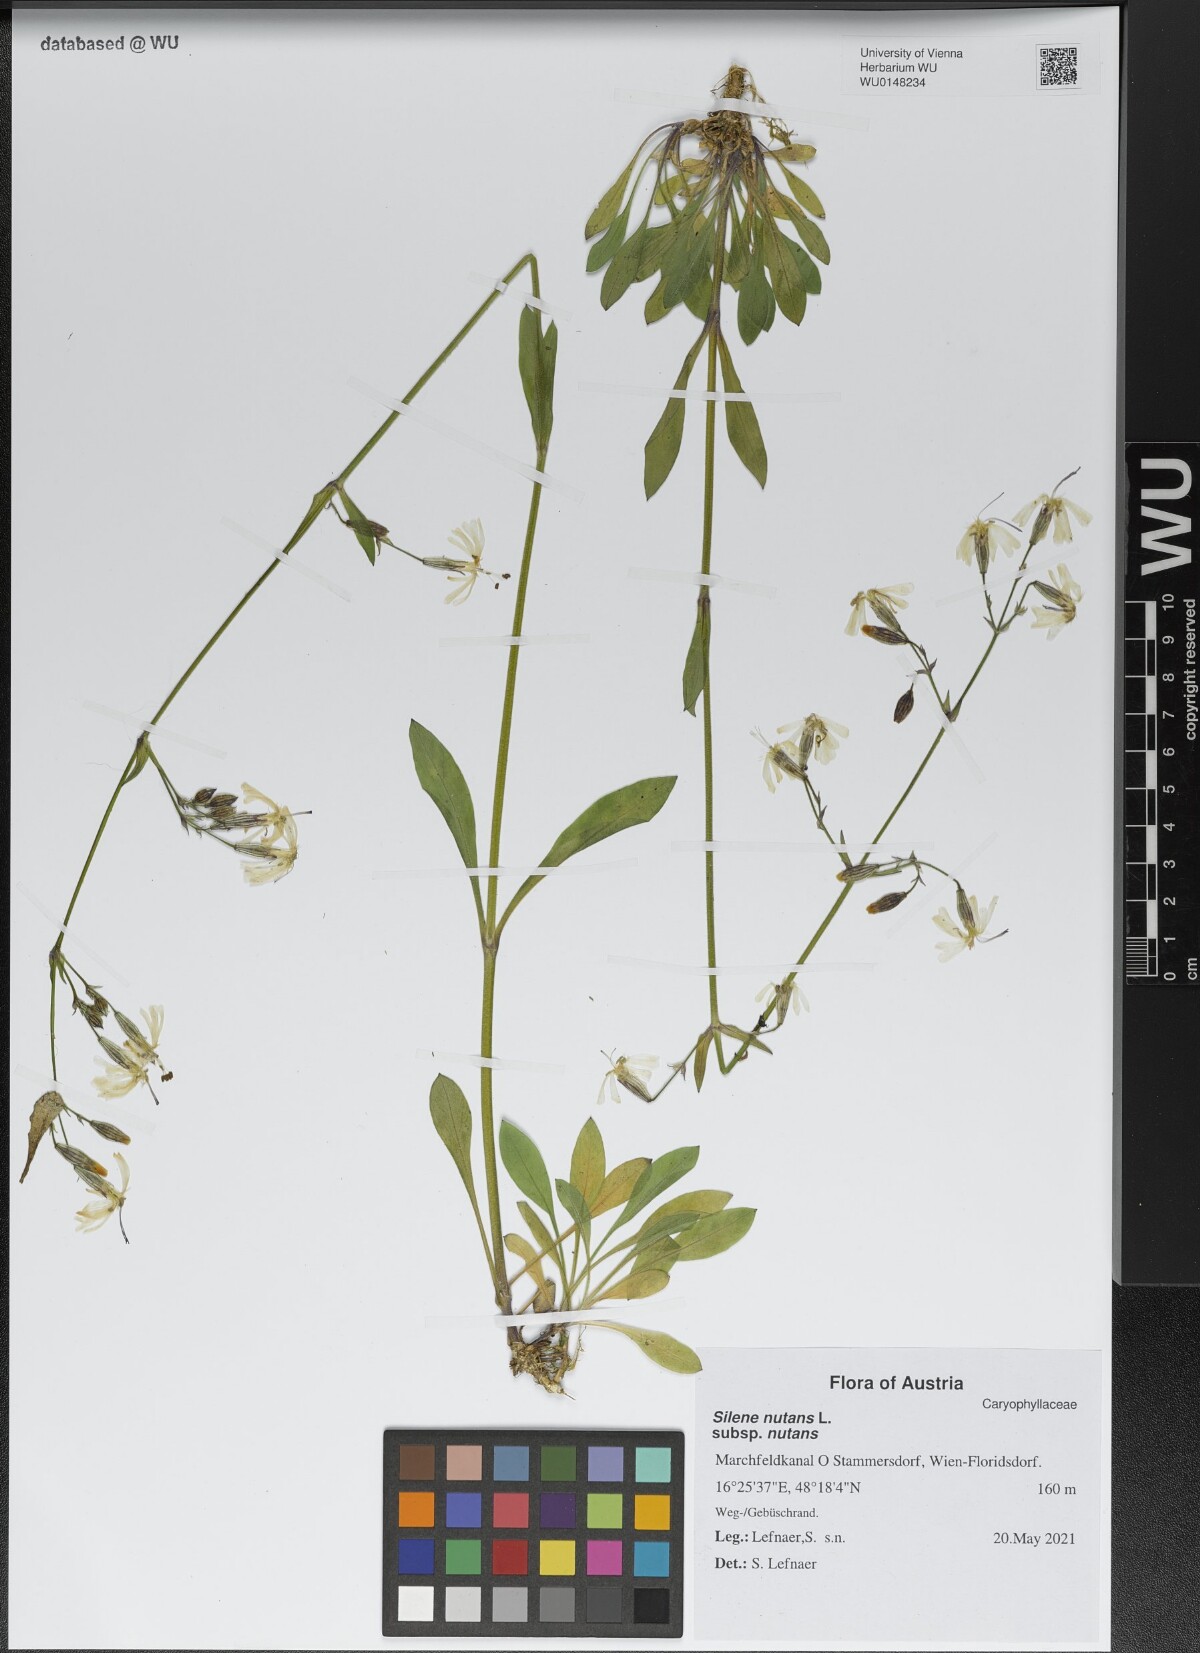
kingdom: Plantae
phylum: Tracheophyta
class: Magnoliopsida
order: Caryophyllales
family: Caryophyllaceae
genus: Silene
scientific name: Silene nutans
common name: Nottingham catchfly
